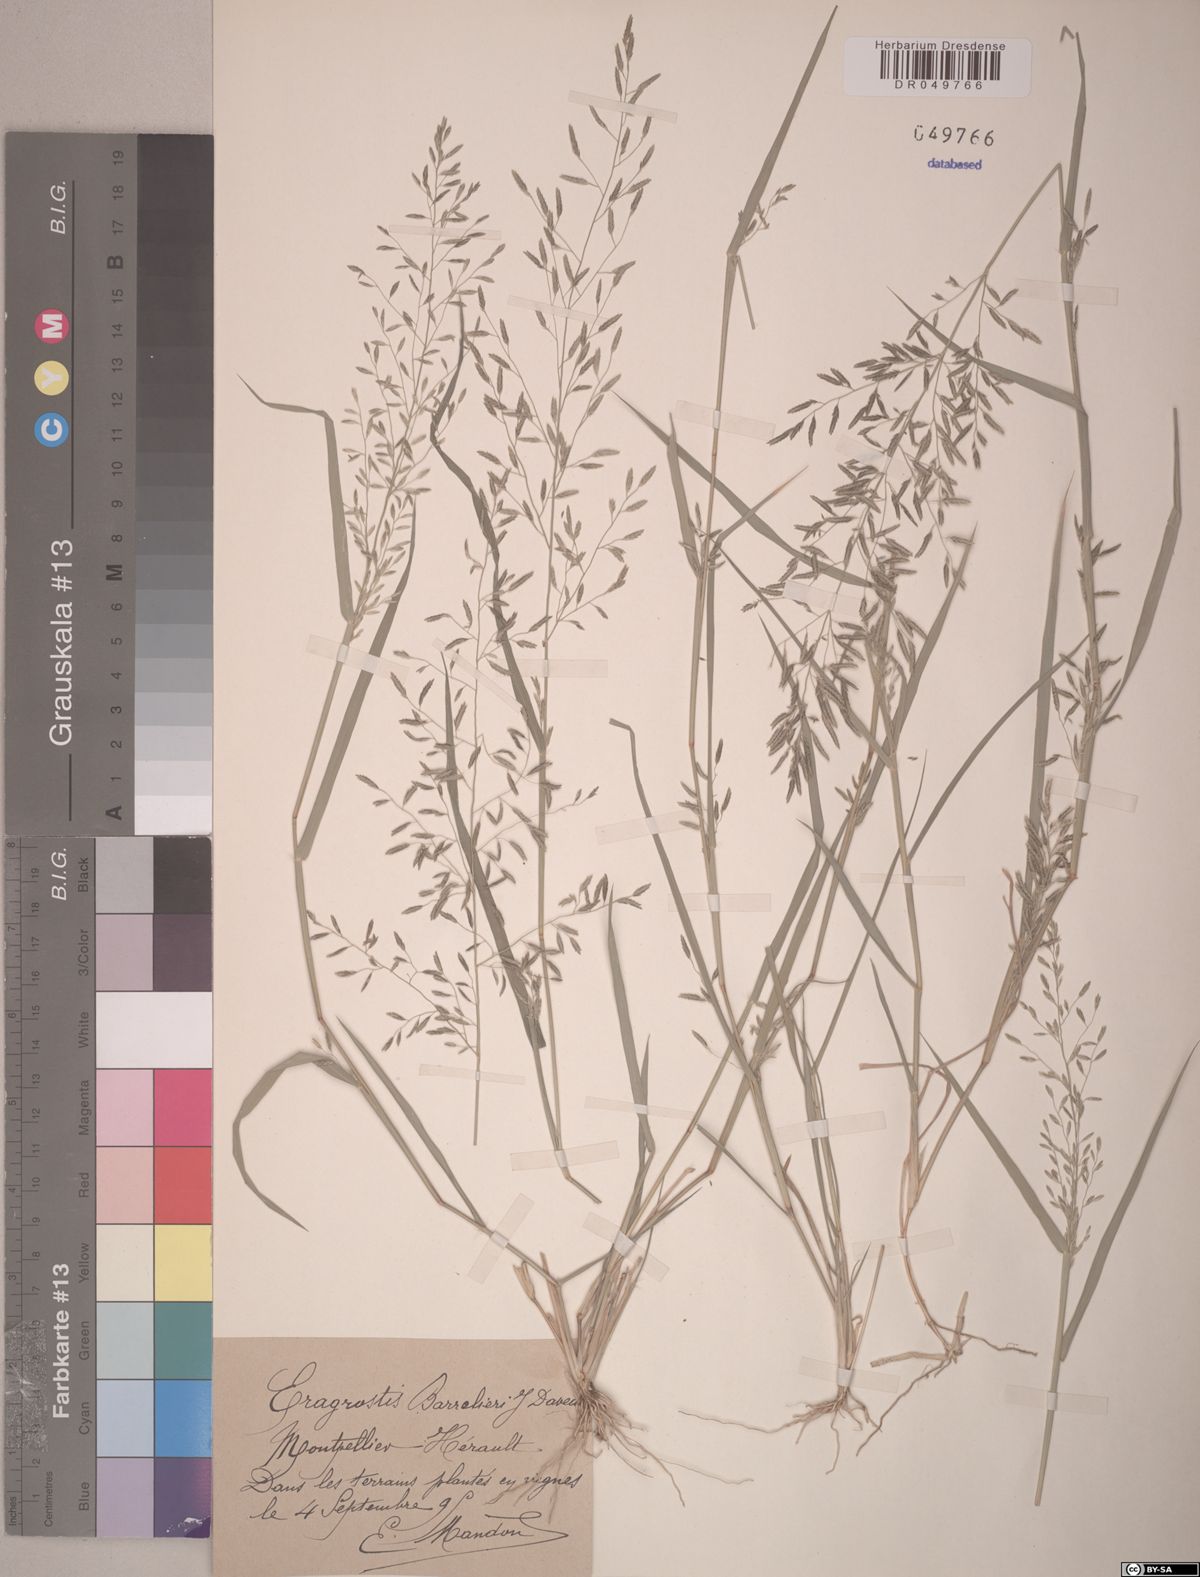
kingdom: Plantae
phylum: Tracheophyta
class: Liliopsida
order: Poales
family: Poaceae
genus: Eragrostis
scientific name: Eragrostis barrelieri
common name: Mediterranean lovegrass
